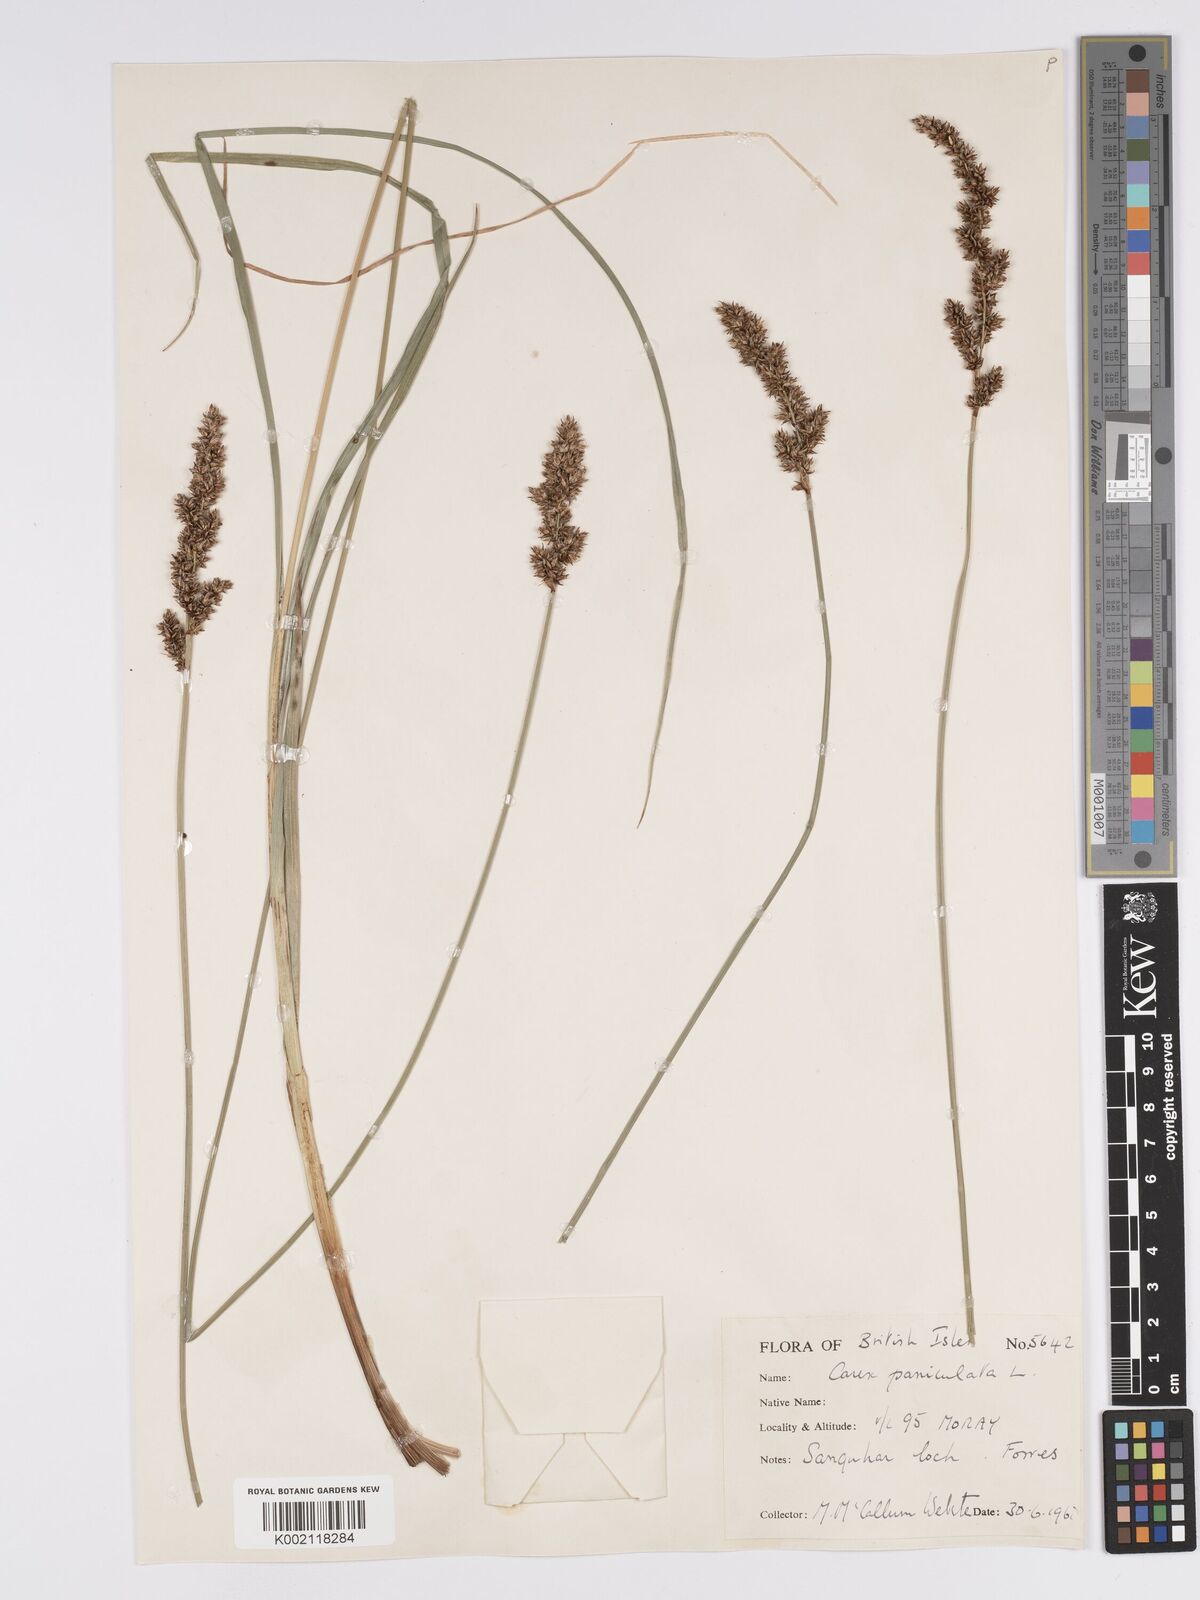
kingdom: Plantae
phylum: Tracheophyta
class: Liliopsida
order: Poales
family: Cyperaceae
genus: Carex
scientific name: Carex paniculata
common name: Greater tussock-sedge
